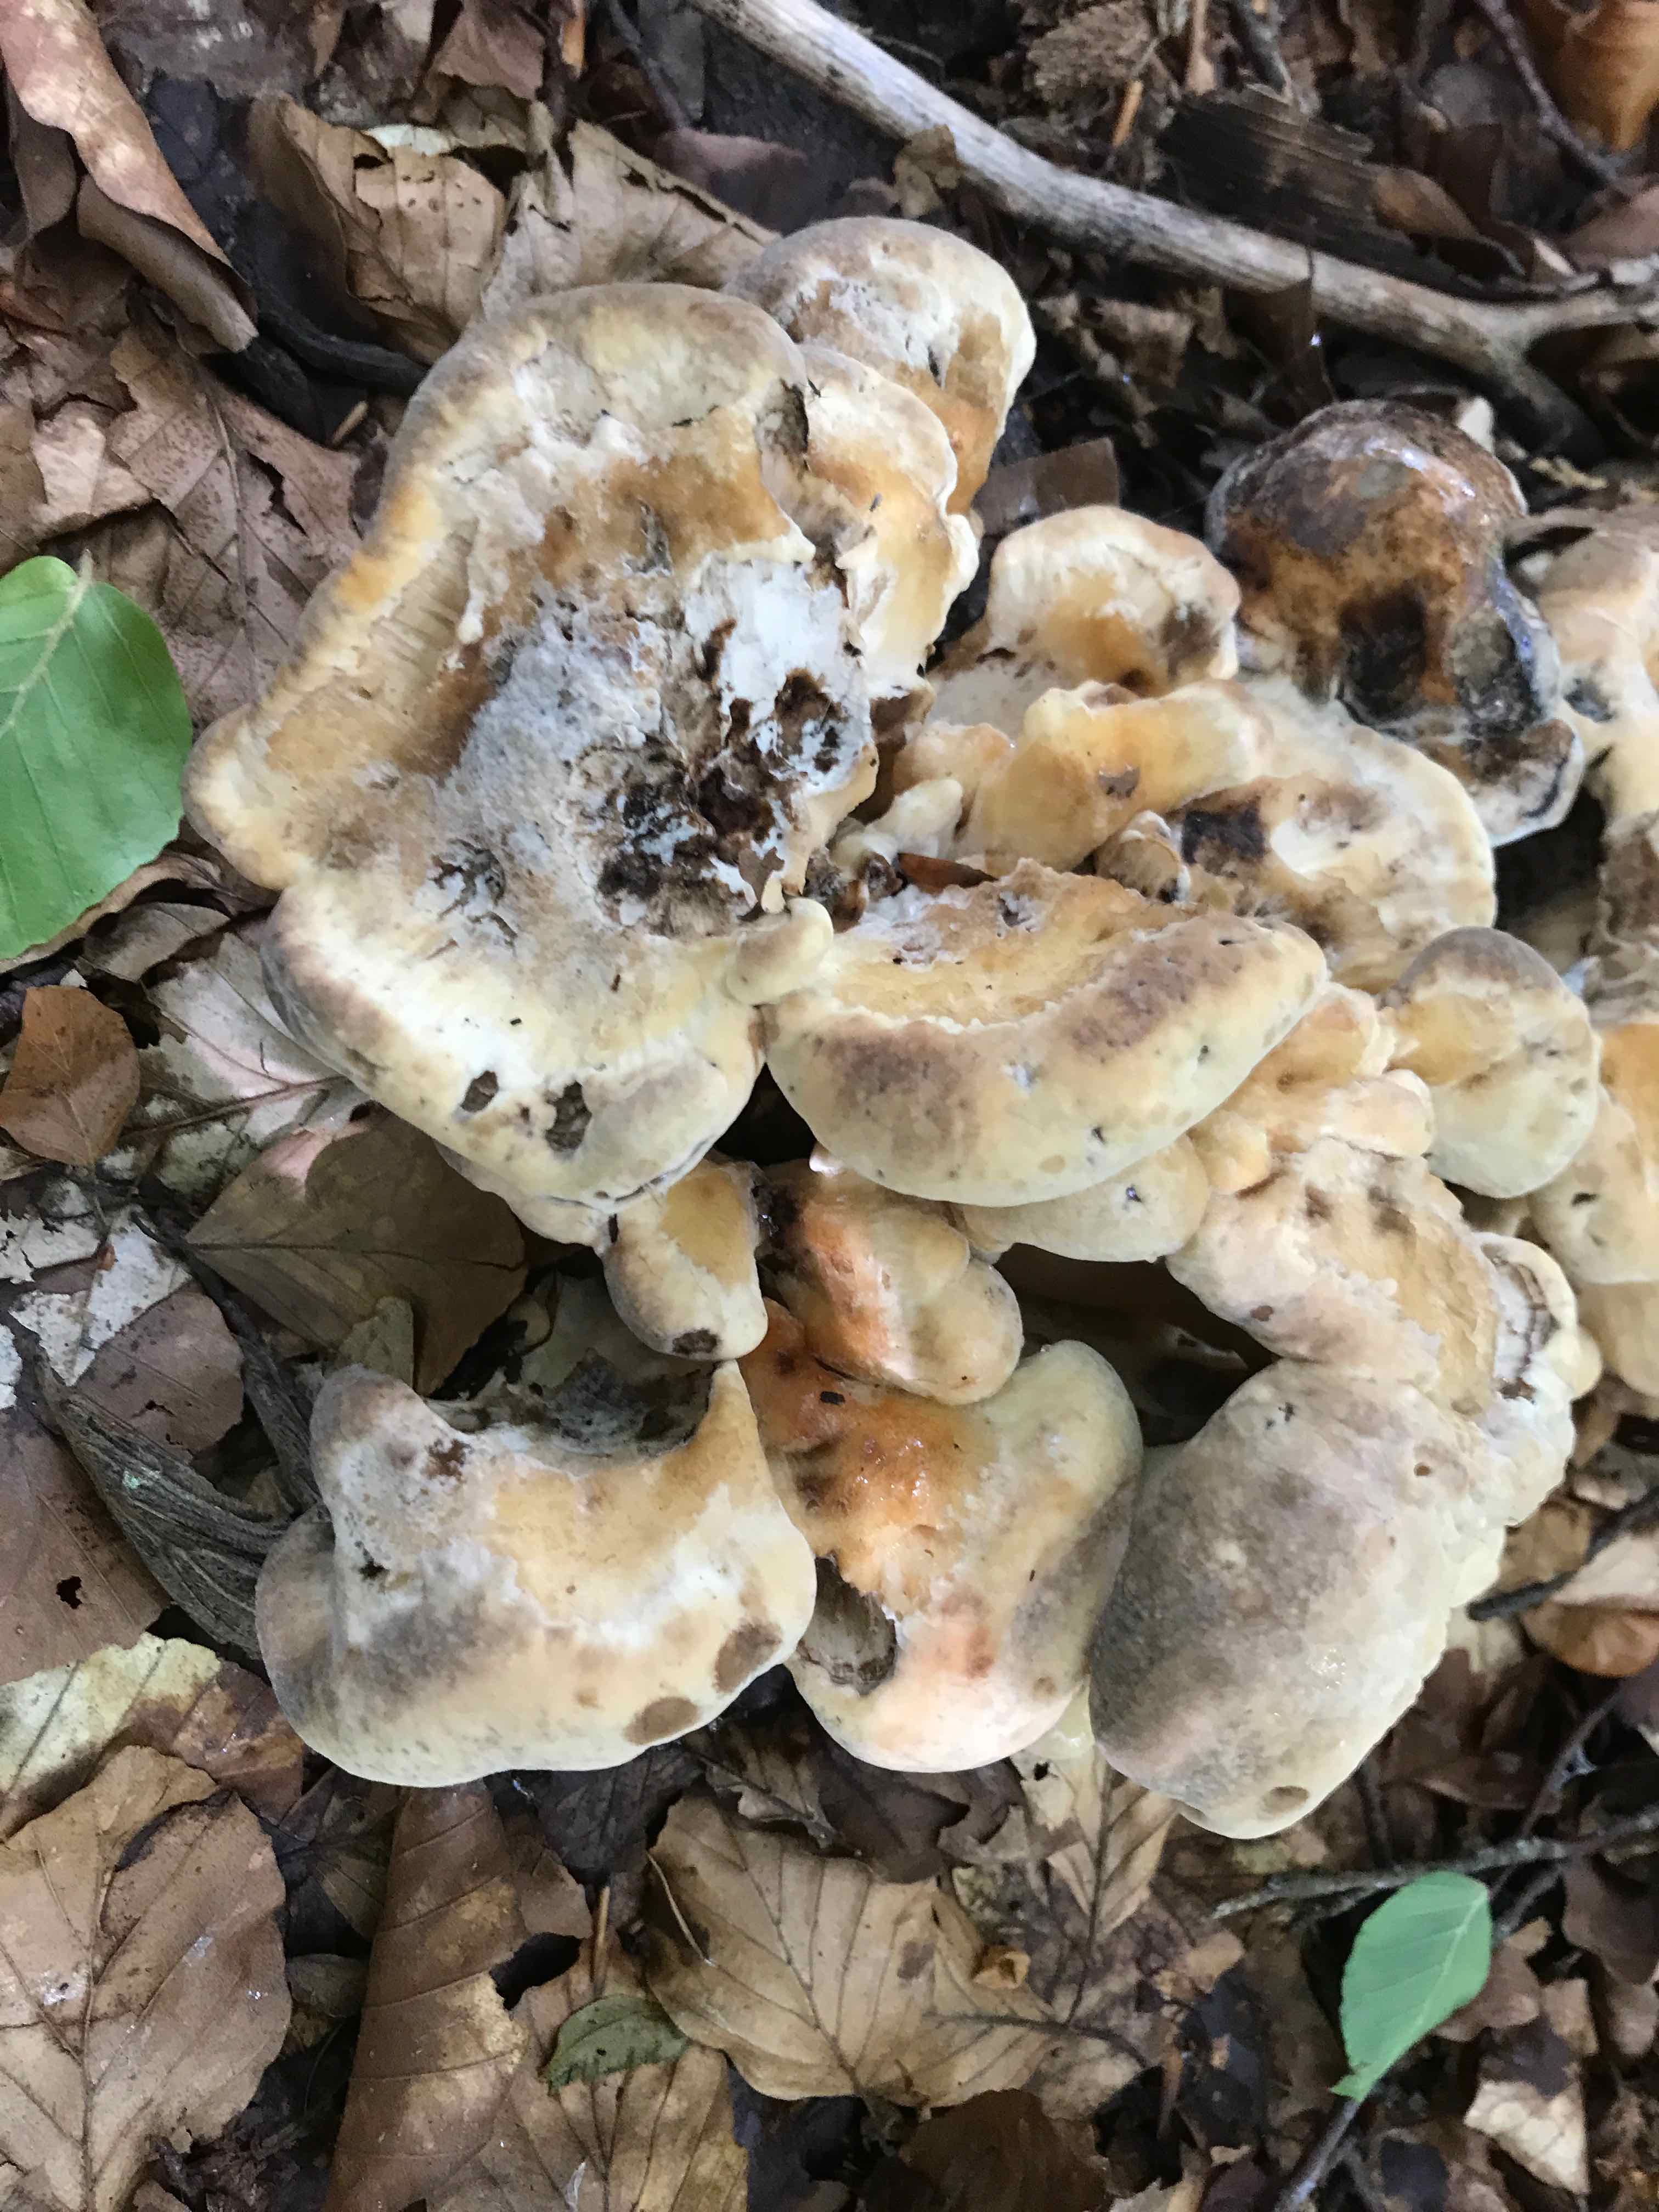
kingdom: Fungi
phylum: Basidiomycota
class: Agaricomycetes
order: Polyporales
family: Meripilaceae
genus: Meripilus
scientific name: Meripilus giganteus
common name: kæmpeporesvamp
